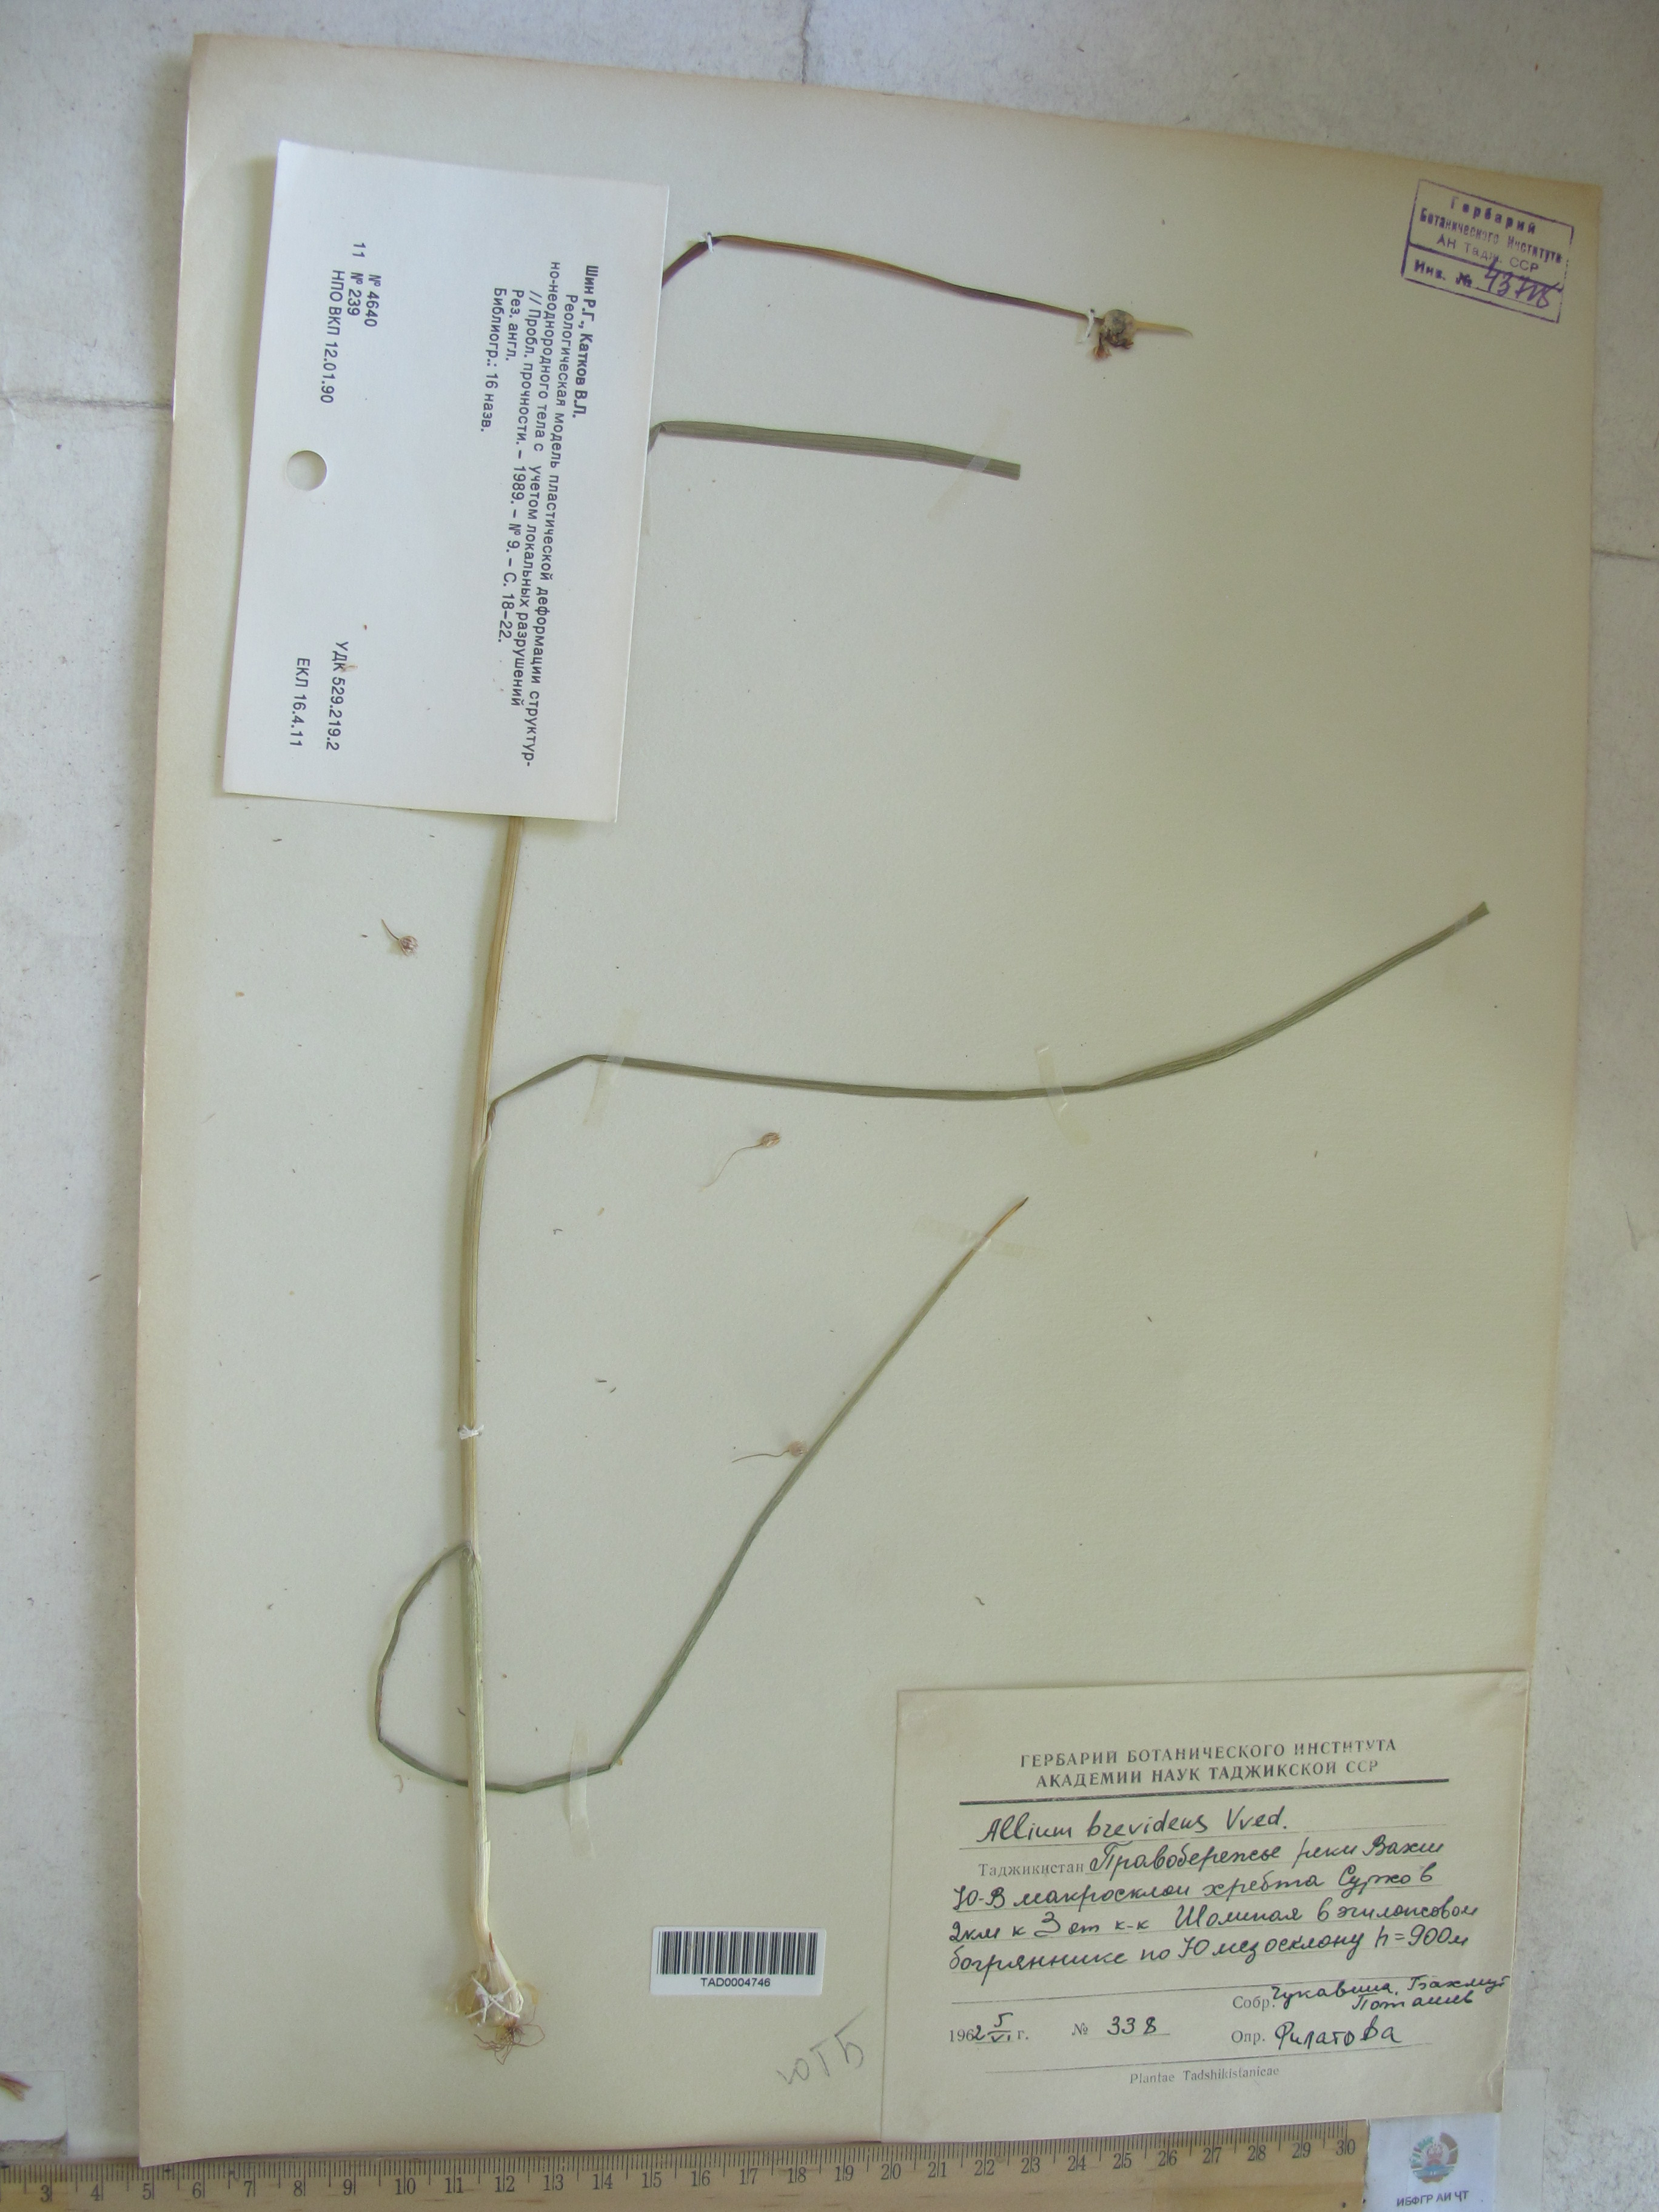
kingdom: Plantae
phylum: Tracheophyta
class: Liliopsida
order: Asparagales
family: Amaryllidaceae
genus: Allium
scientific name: Allium brevidens
